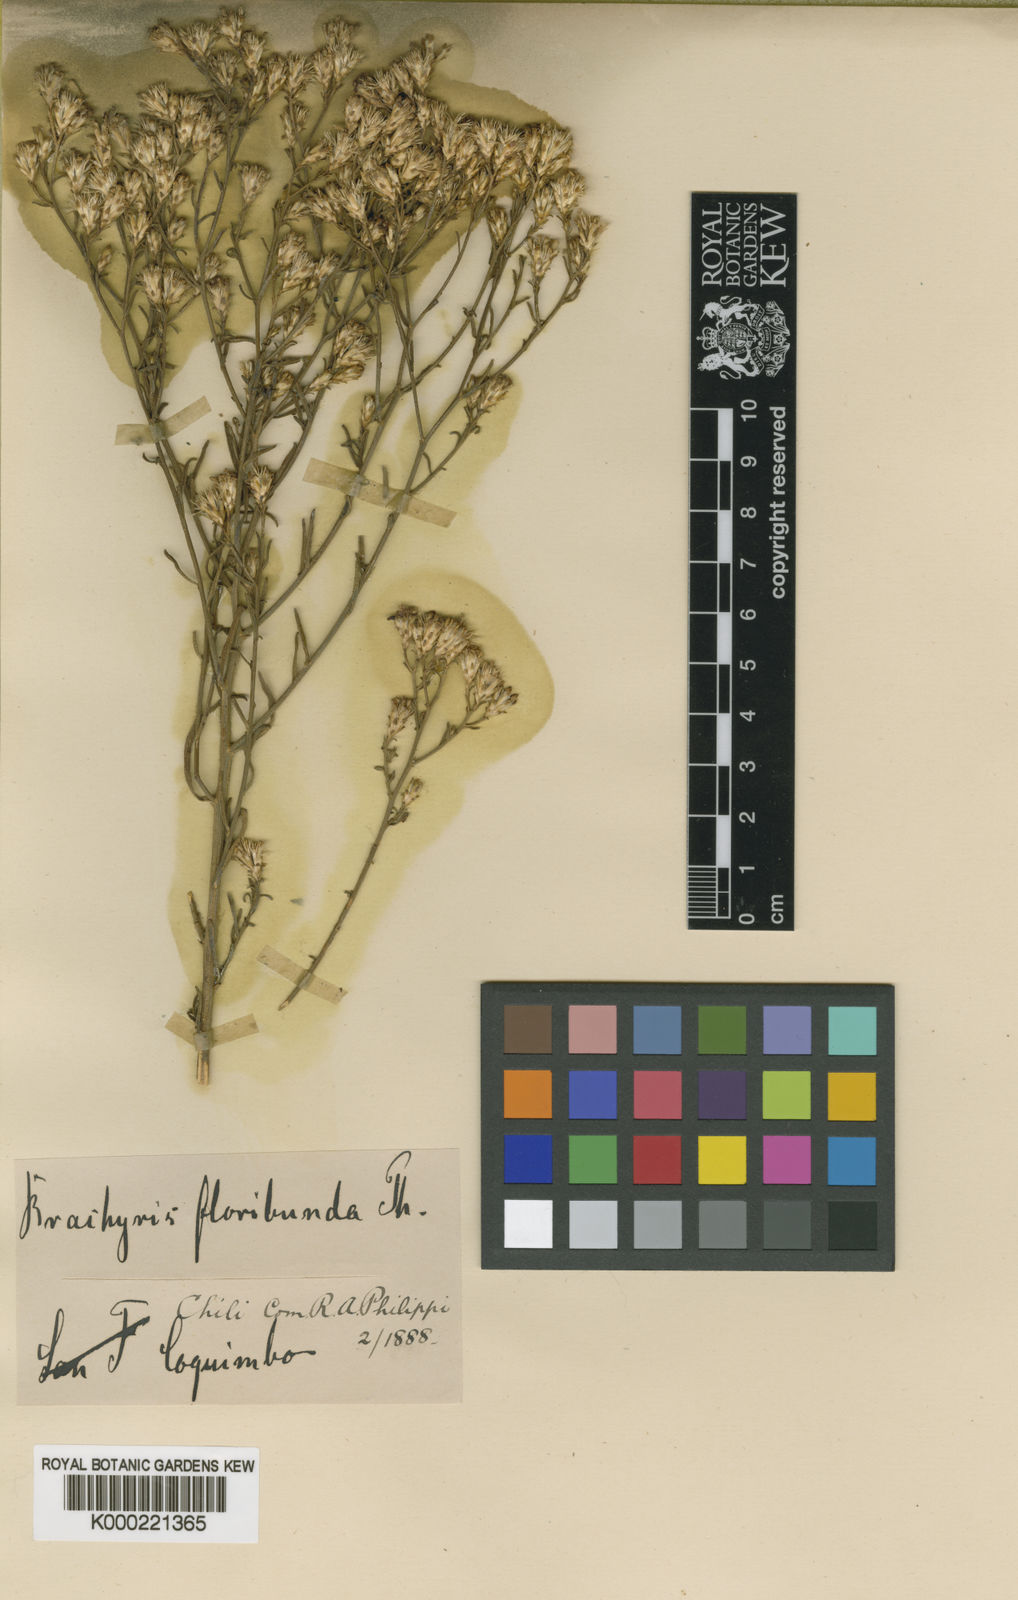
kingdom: Plantae
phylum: Tracheophyta
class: Magnoliopsida
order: Asterales
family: Asteraceae
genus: Gutierrezia
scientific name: Gutierrezia
